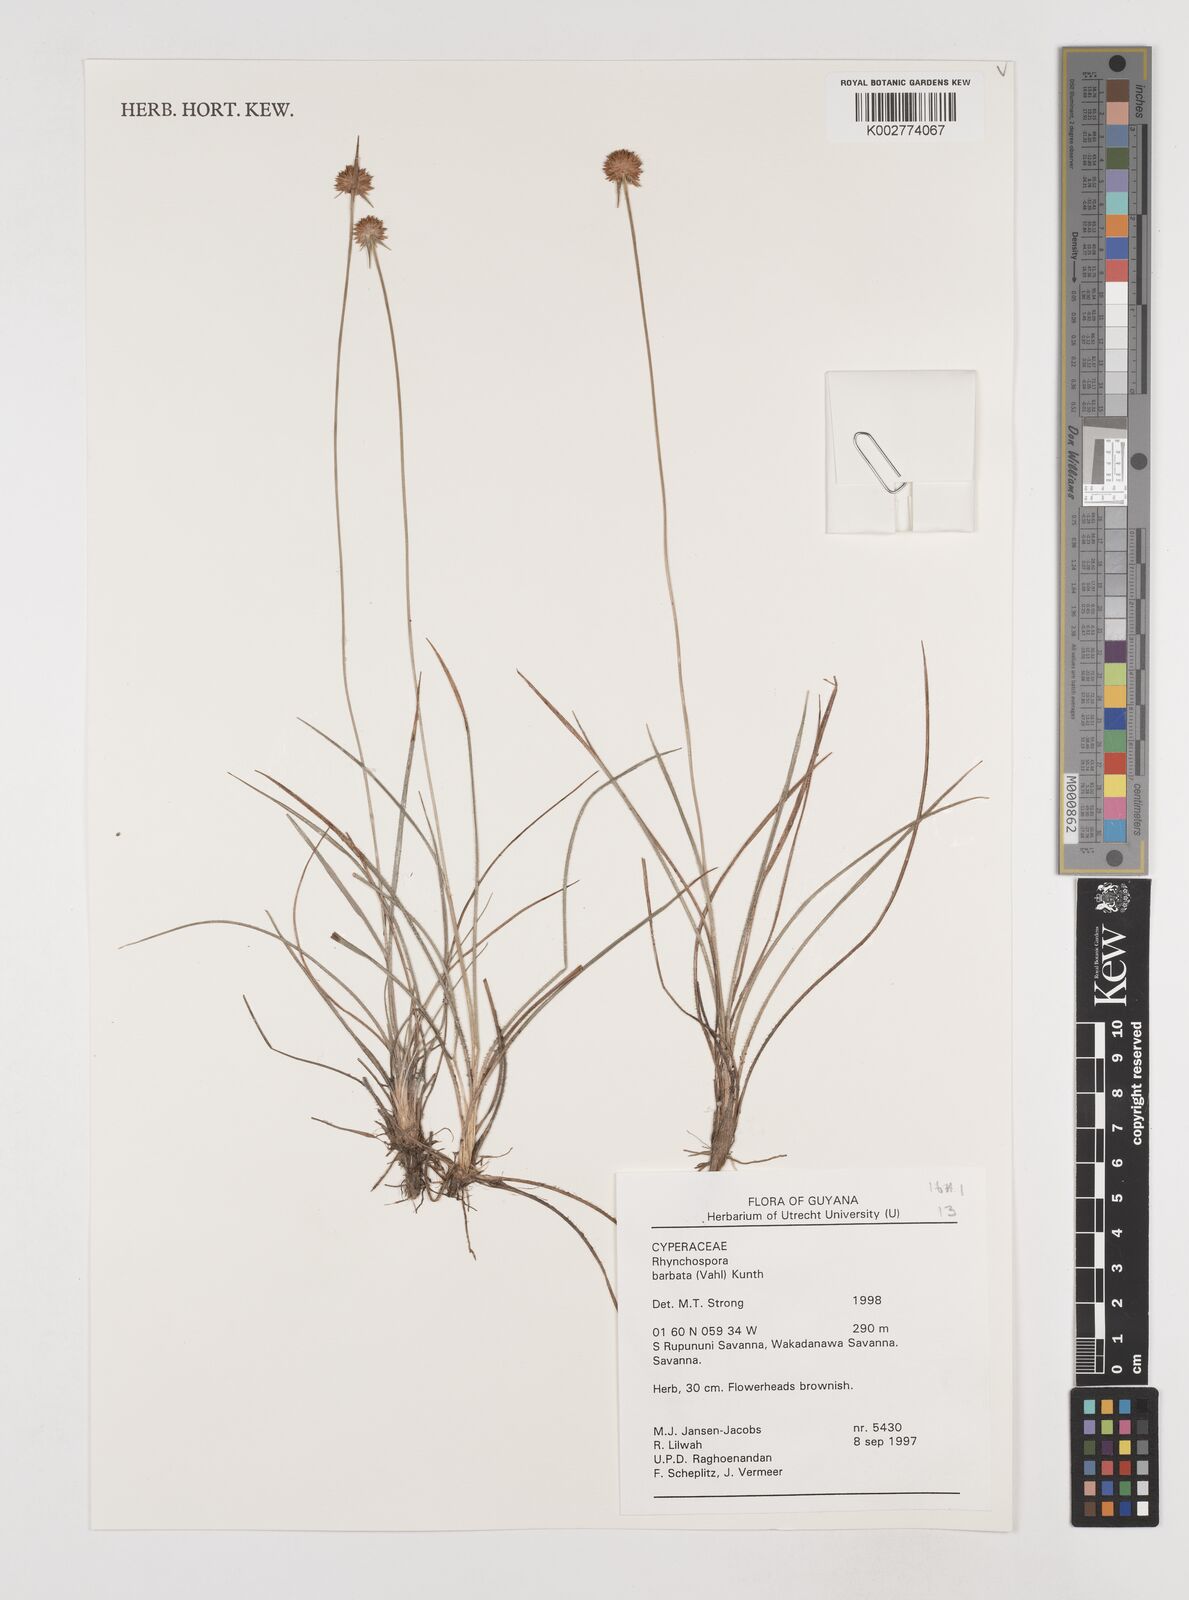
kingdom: Plantae
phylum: Tracheophyta
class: Liliopsida
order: Poales
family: Cyperaceae
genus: Rhynchospora
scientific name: Rhynchospora barbata
